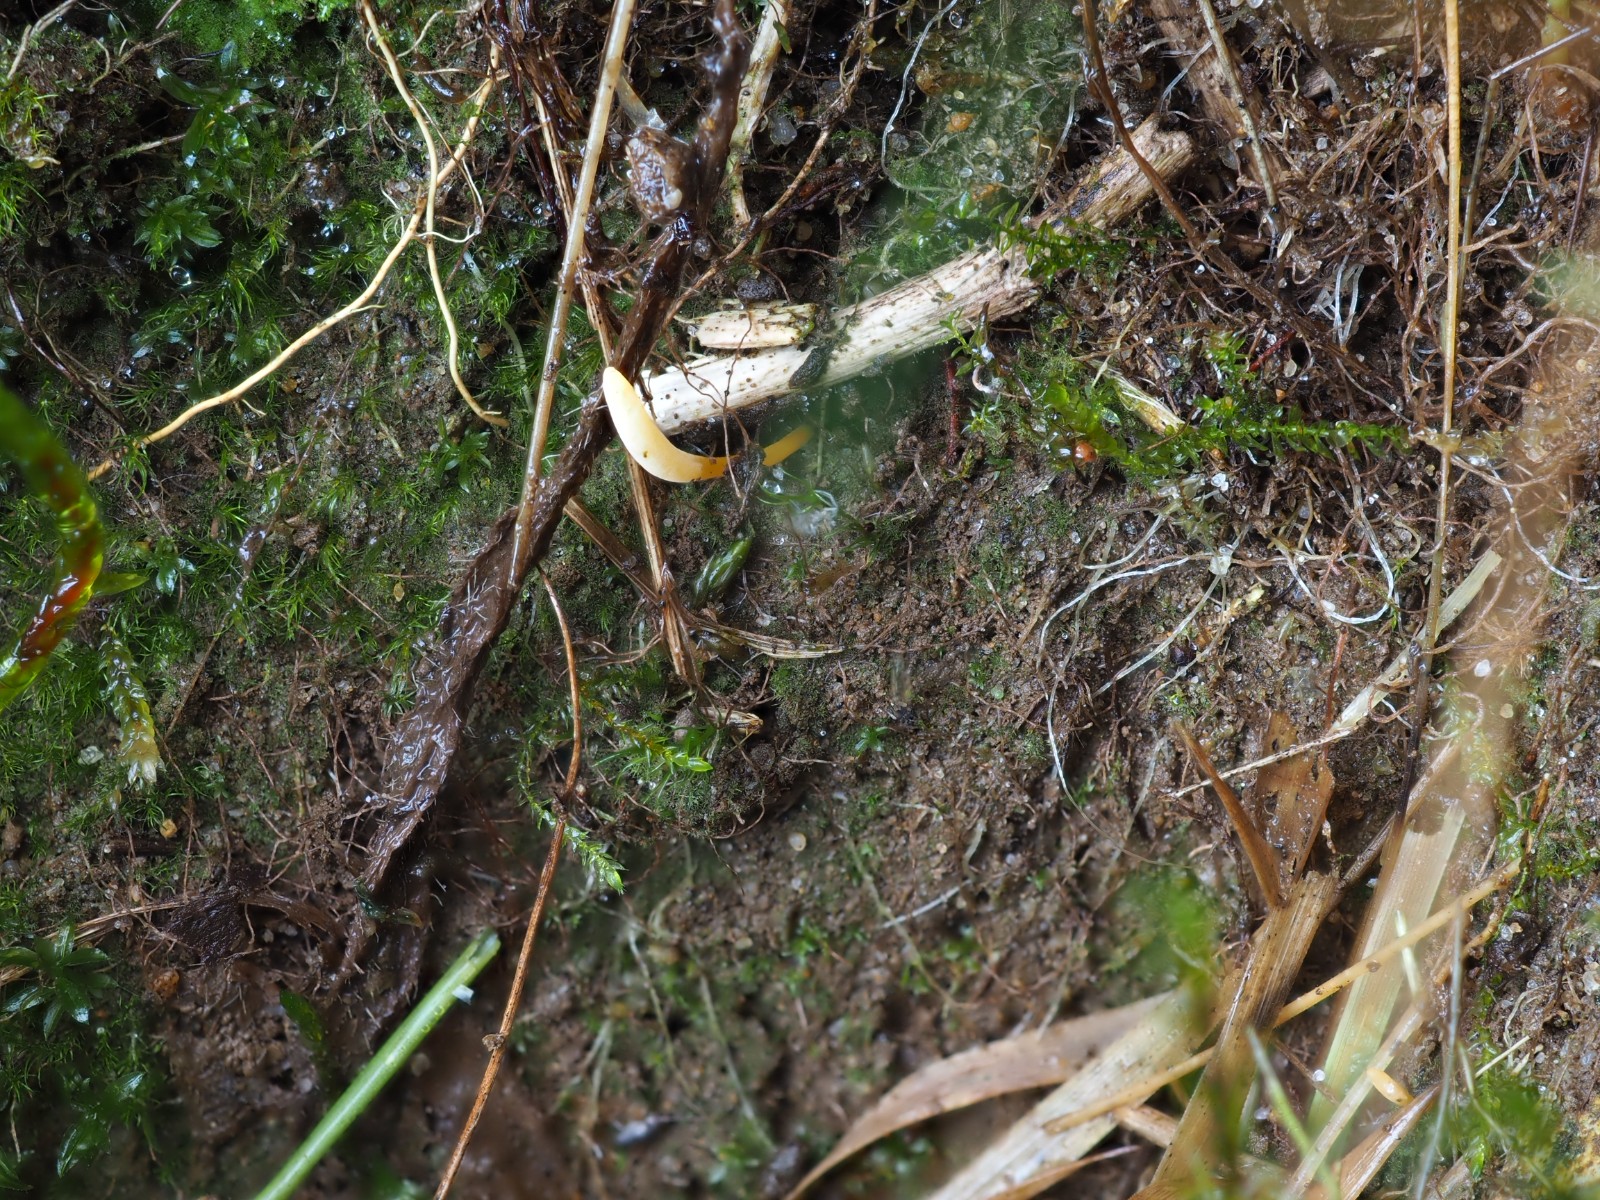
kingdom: Fungi
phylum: Basidiomycota
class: Agaricomycetes
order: Agaricales
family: Clavariaceae
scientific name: Clavariaceae
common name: køllesvampfamilien
